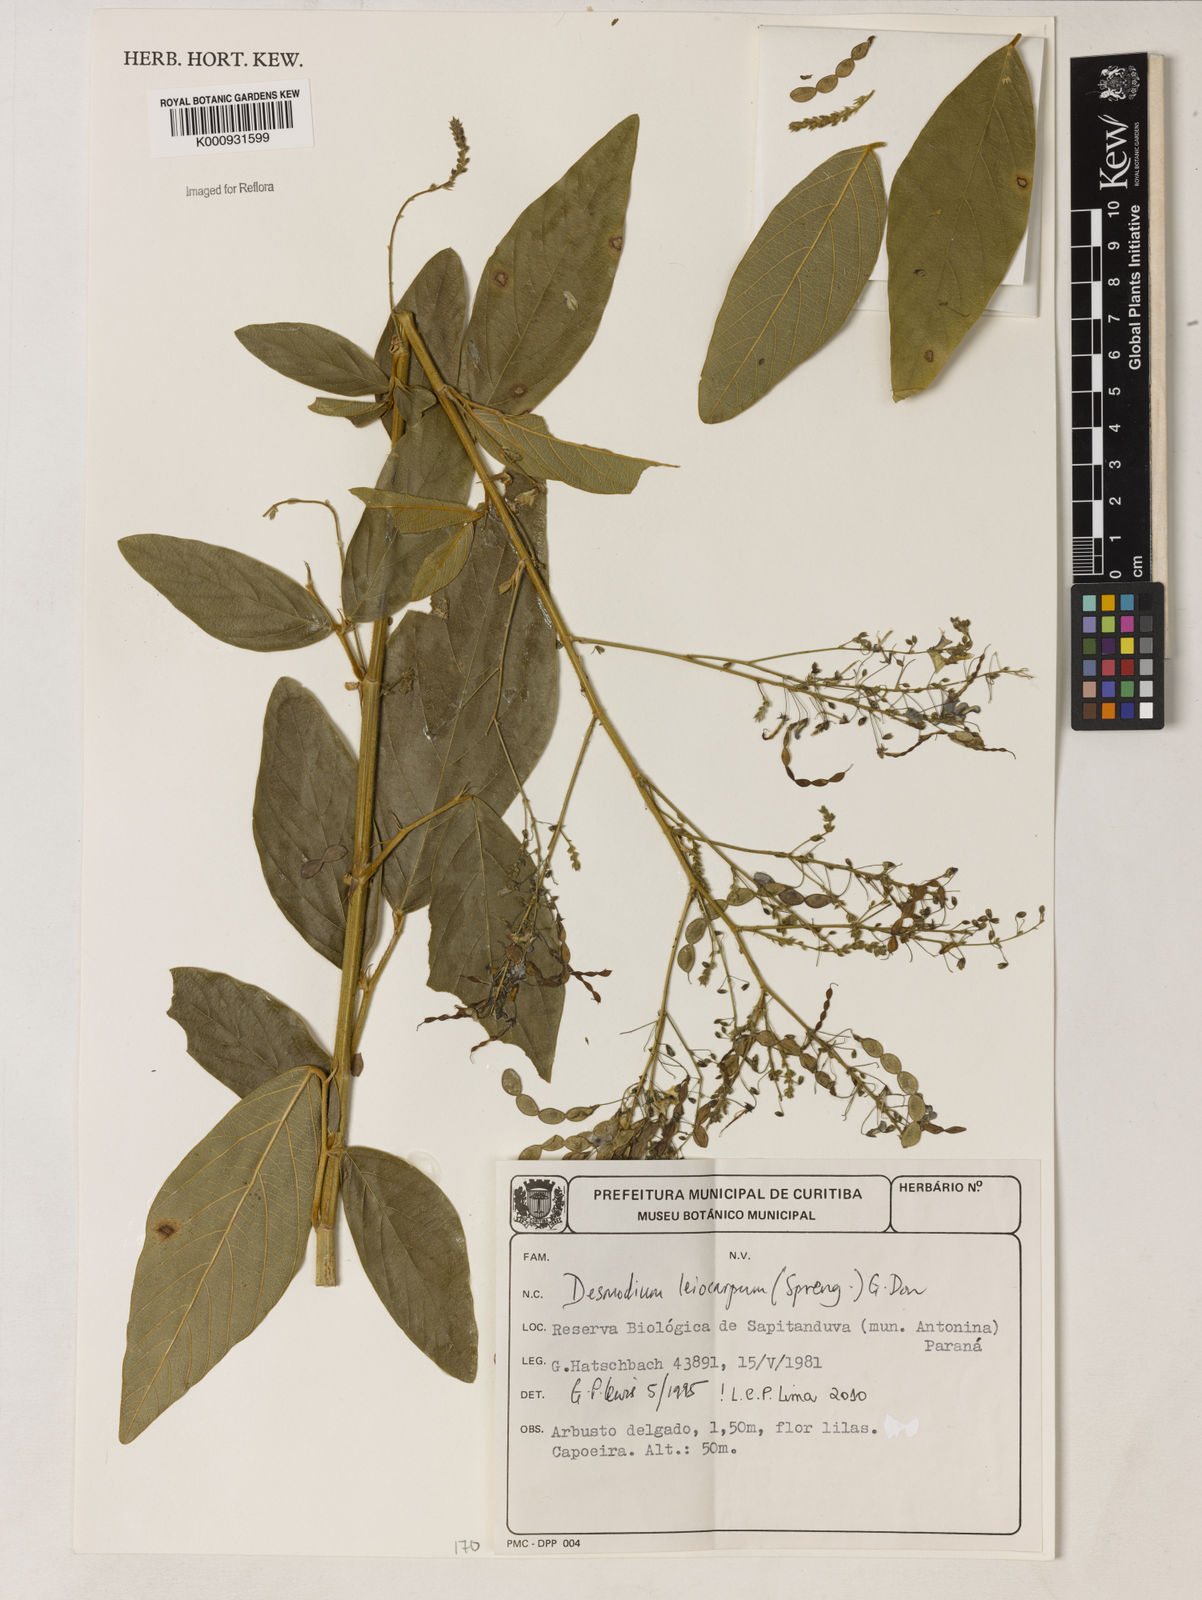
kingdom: Plantae
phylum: Tracheophyta
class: Magnoliopsida
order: Fabales
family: Fabaceae
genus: Desmodium
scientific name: Desmodium leiocarpum
